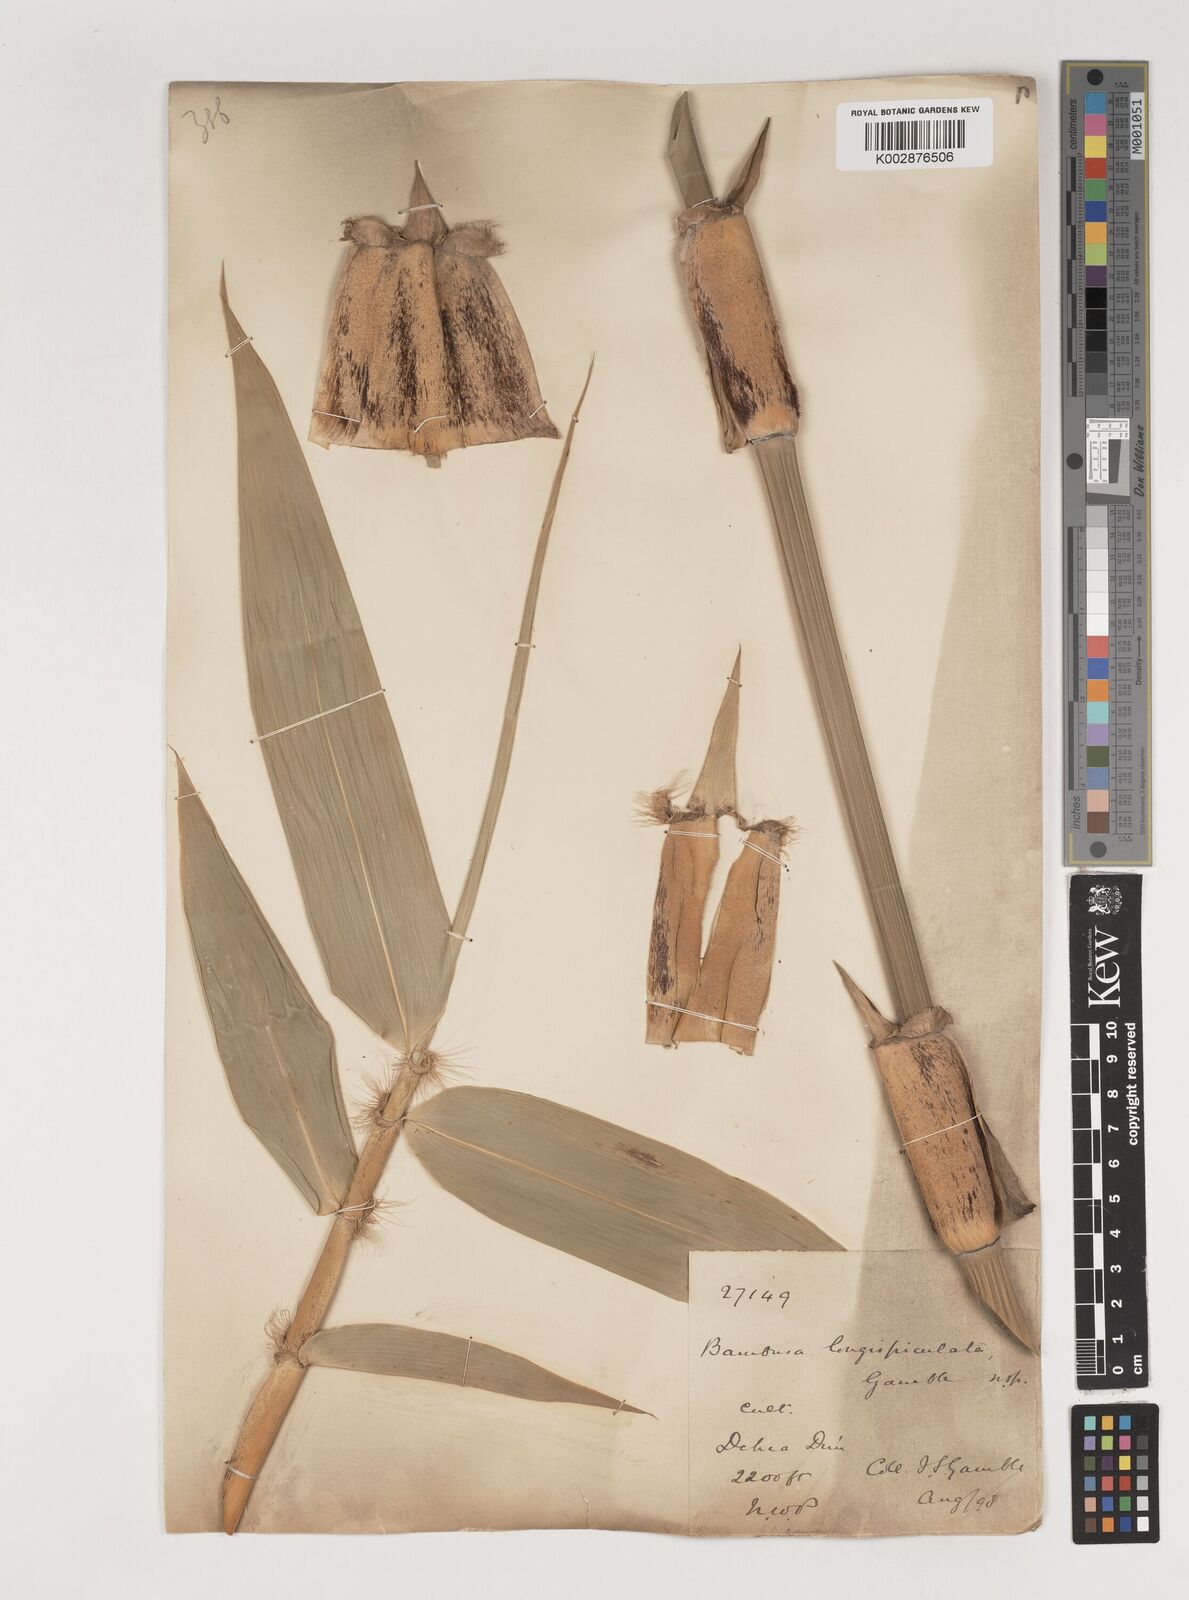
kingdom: Plantae
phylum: Tracheophyta
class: Liliopsida
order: Poales
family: Poaceae
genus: Bambusa
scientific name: Bambusa longispiculata
